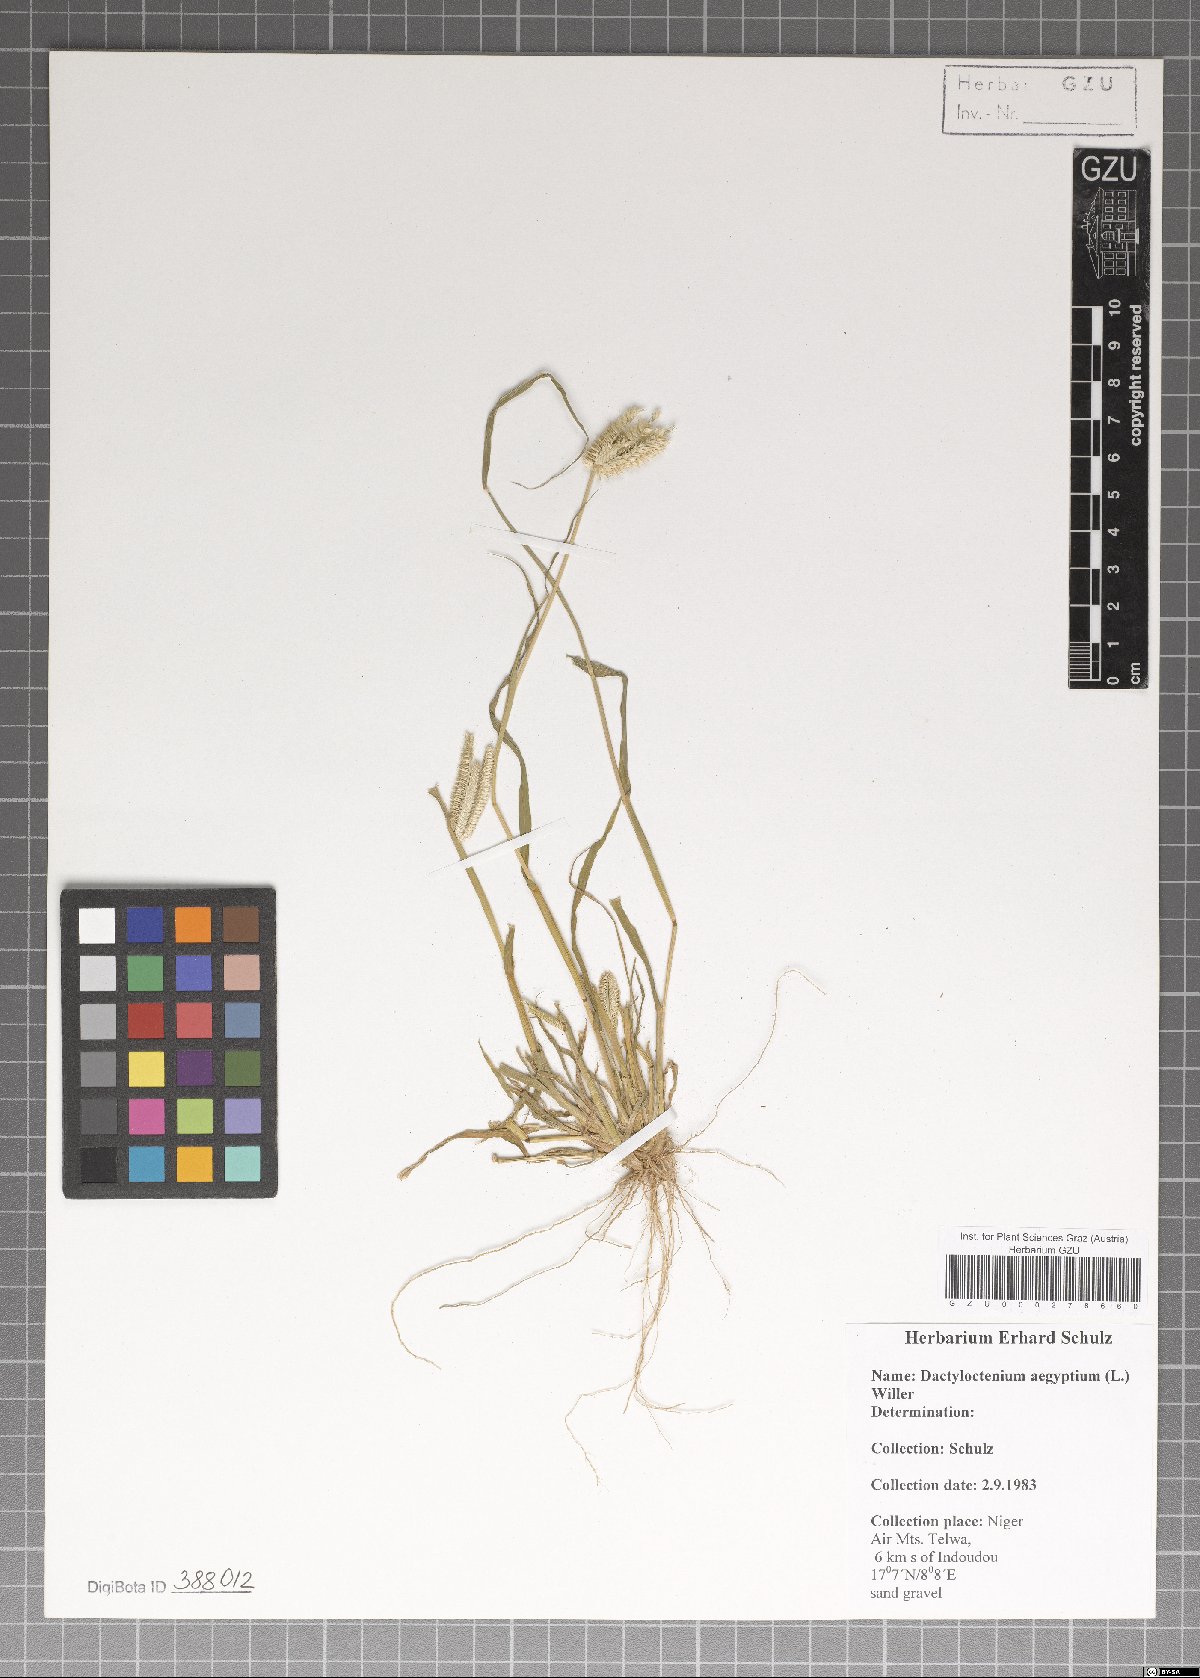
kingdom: Plantae
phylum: Tracheophyta
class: Liliopsida
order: Poales
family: Poaceae
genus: Dactyloctenium
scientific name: Dactyloctenium aegyptium
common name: Egyptian grass
